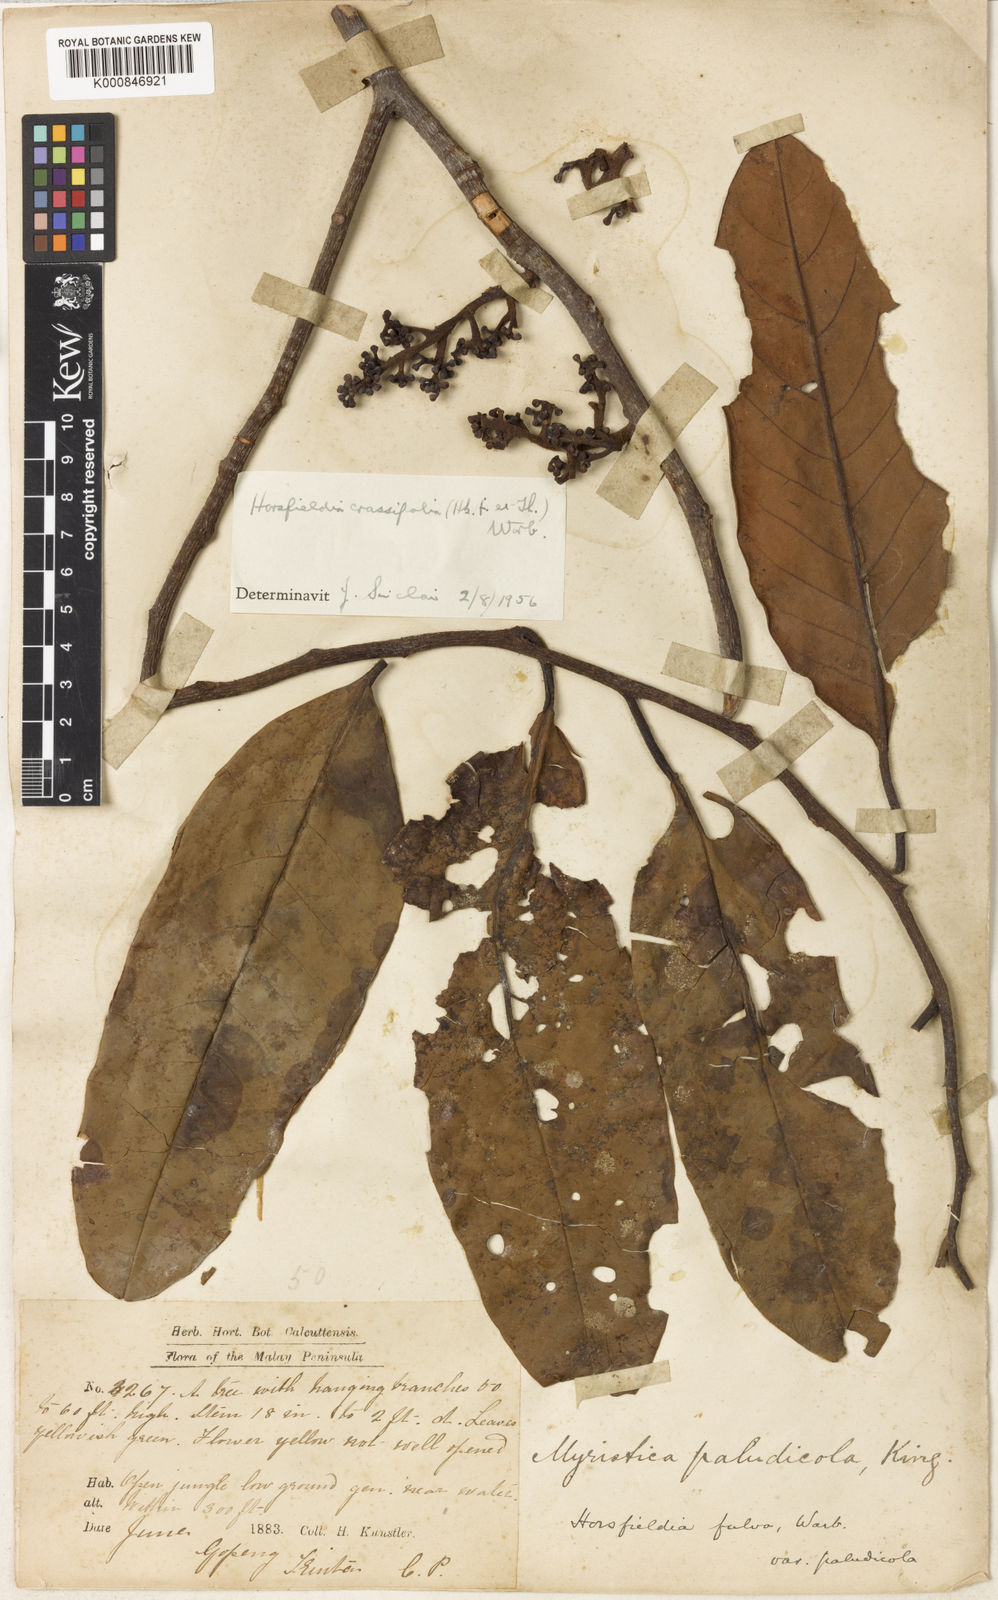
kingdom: Plantae
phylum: Tracheophyta
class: Magnoliopsida
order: Magnoliales
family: Myristicaceae
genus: Horsfieldia
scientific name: Horsfieldia crassifolia
